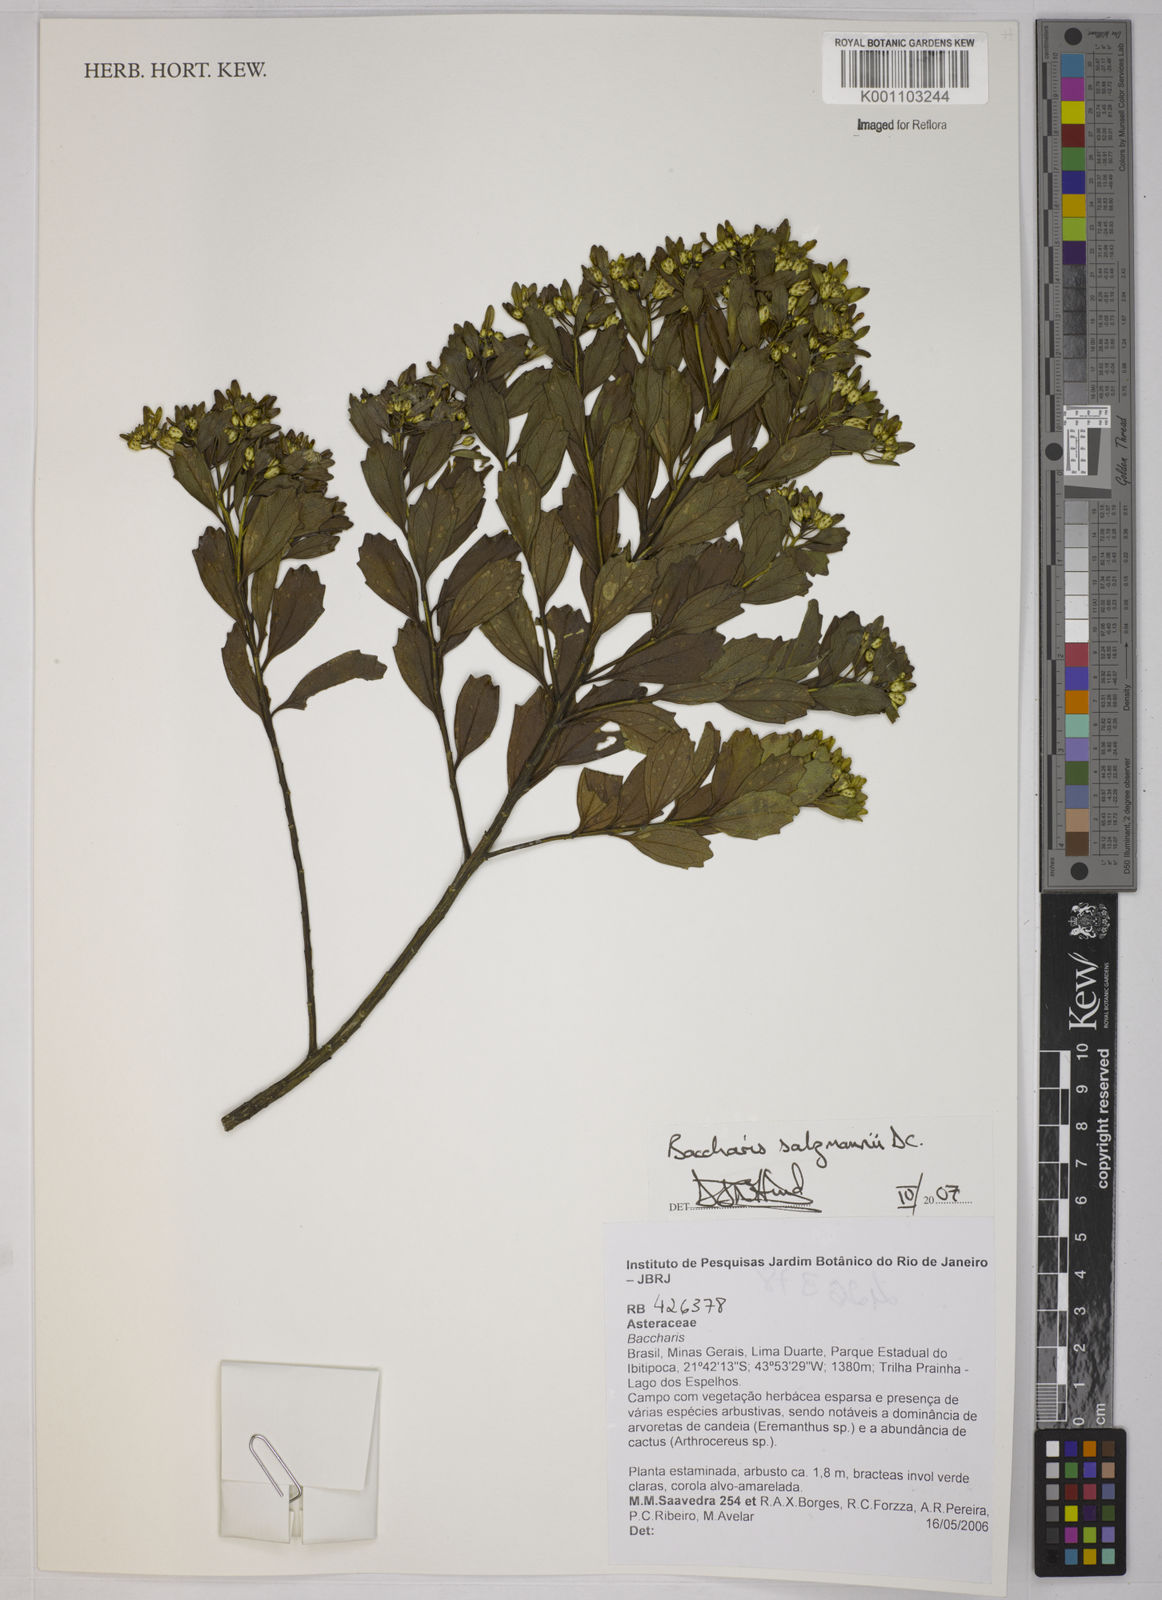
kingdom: Plantae
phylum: Tracheophyta
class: Magnoliopsida
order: Asterales
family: Asteraceae
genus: Baccharis
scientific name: Baccharis retusa
